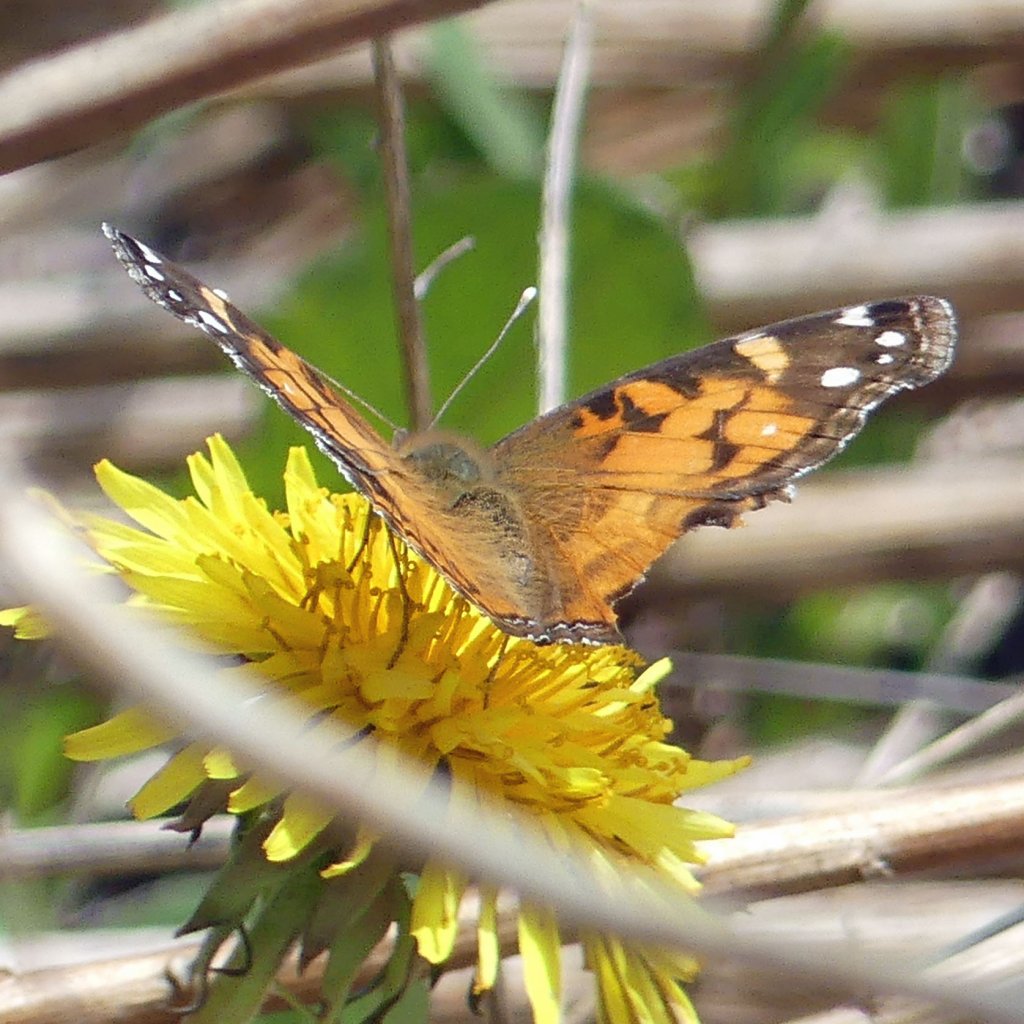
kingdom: Animalia
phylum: Arthropoda
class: Insecta
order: Lepidoptera
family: Nymphalidae
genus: Vanessa
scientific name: Vanessa virginiensis
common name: American Lady
